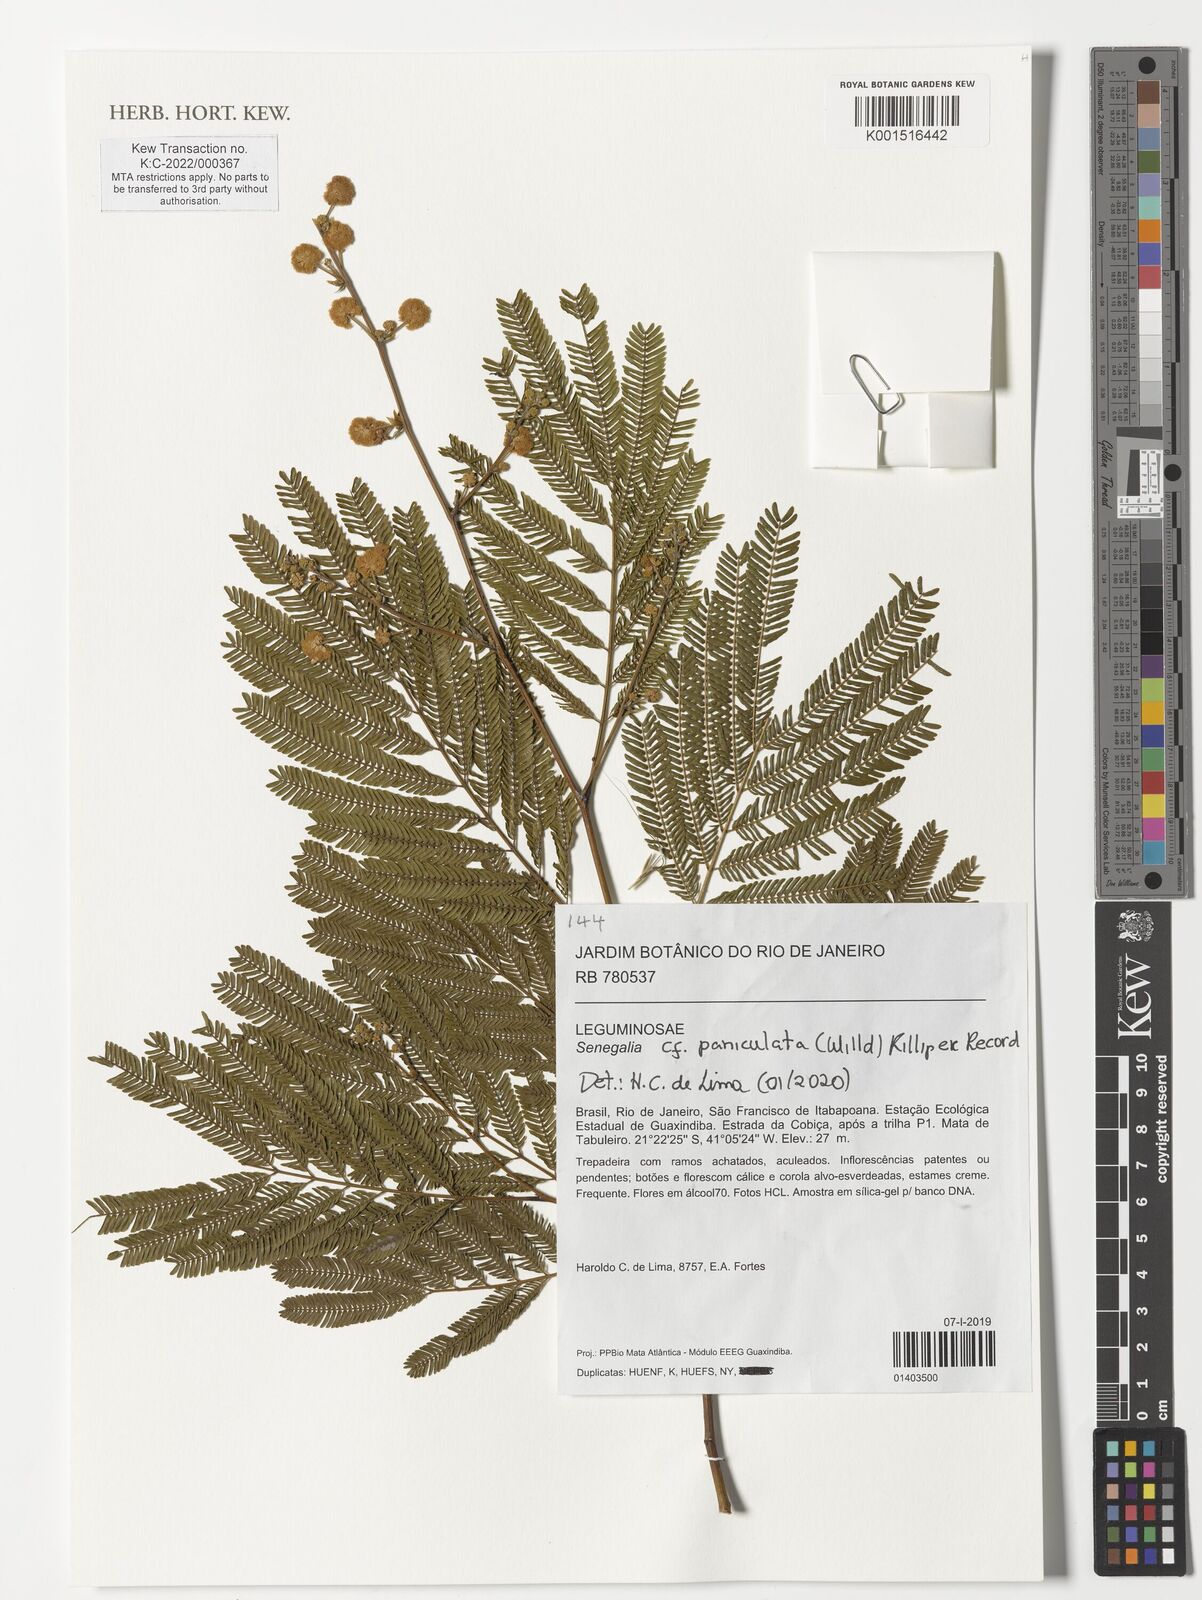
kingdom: Plantae
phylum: Tracheophyta
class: Magnoliopsida
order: Fabales
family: Fabaceae
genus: Senegalia
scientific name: Senegalia paniculata
